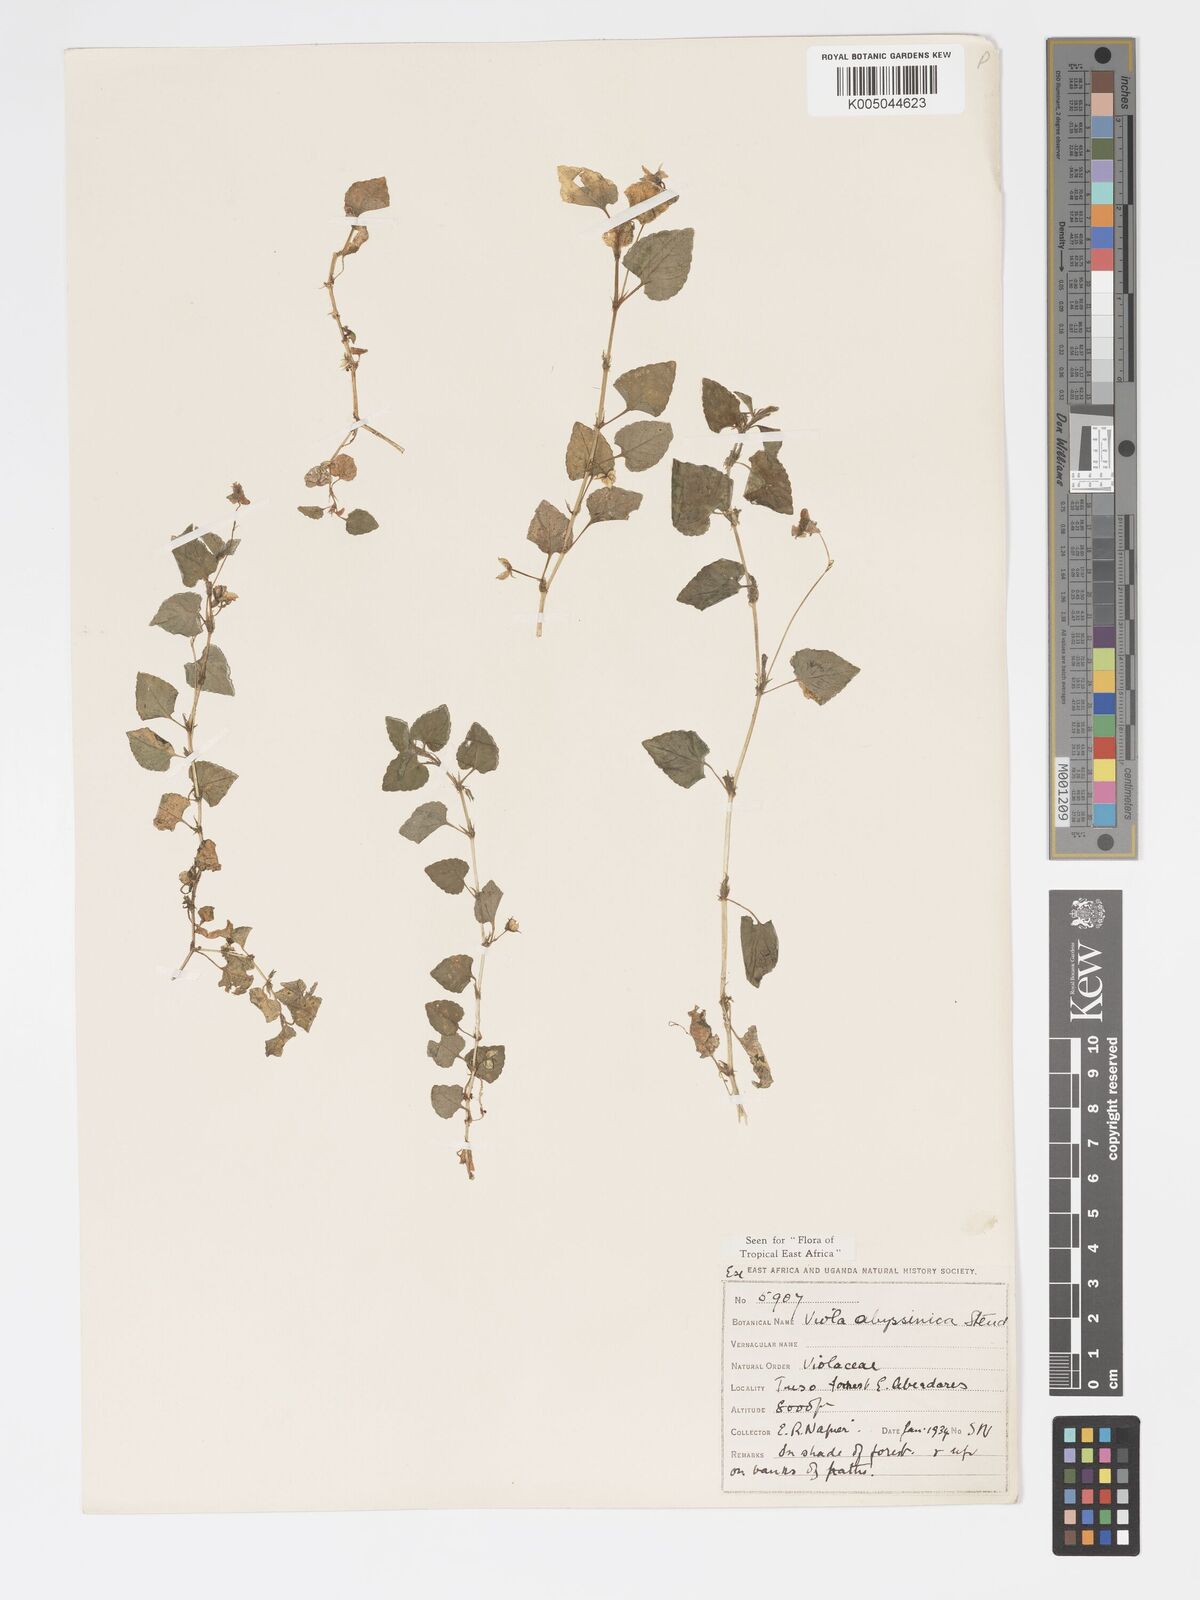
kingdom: Plantae
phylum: Tracheophyta
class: Magnoliopsida
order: Malpighiales
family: Violaceae
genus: Viola
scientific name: Viola abyssinica
